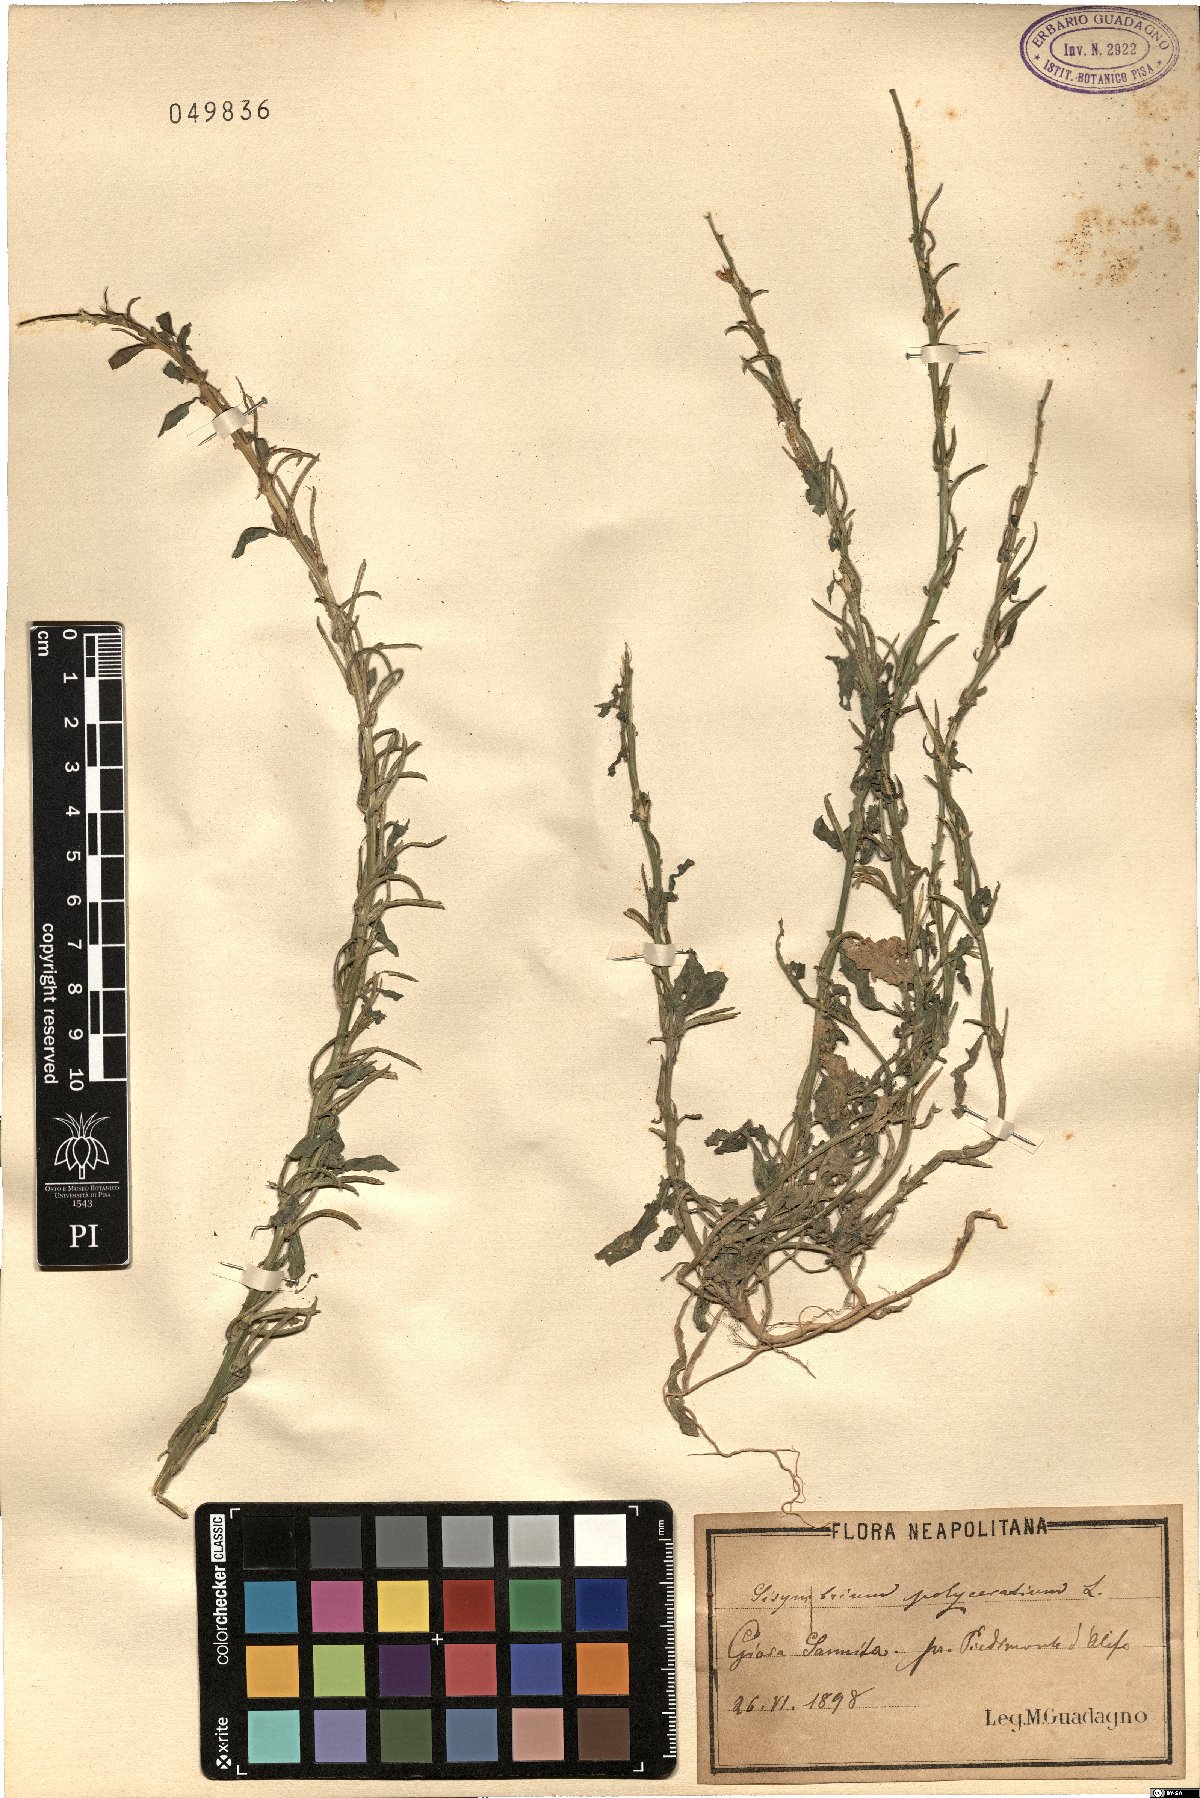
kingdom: Plantae
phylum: Tracheophyta
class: Magnoliopsida
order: Brassicales
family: Brassicaceae
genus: Sisymbrium
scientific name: Sisymbrium polyceratium
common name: Shortfruit hedgemustard
